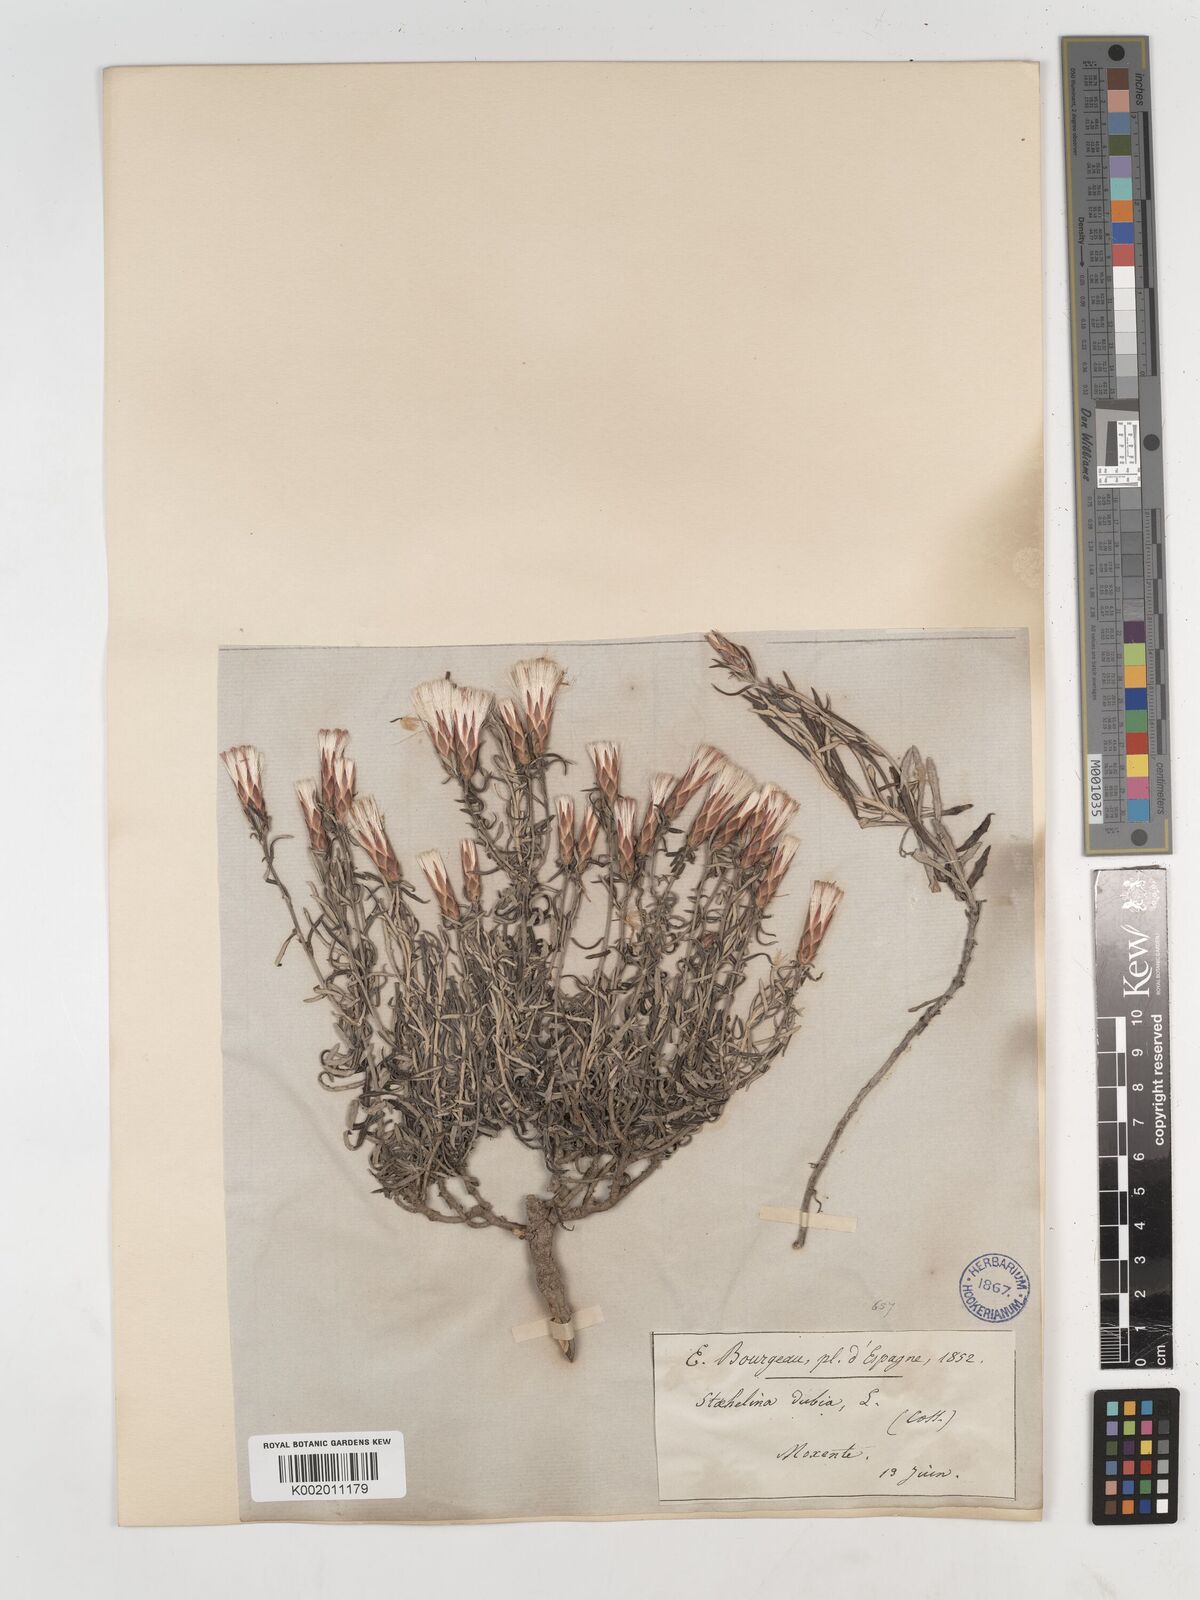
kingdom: Plantae
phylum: Tracheophyta
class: Magnoliopsida
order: Asterales
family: Asteraceae
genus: Staehelina
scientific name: Staehelina dubia
